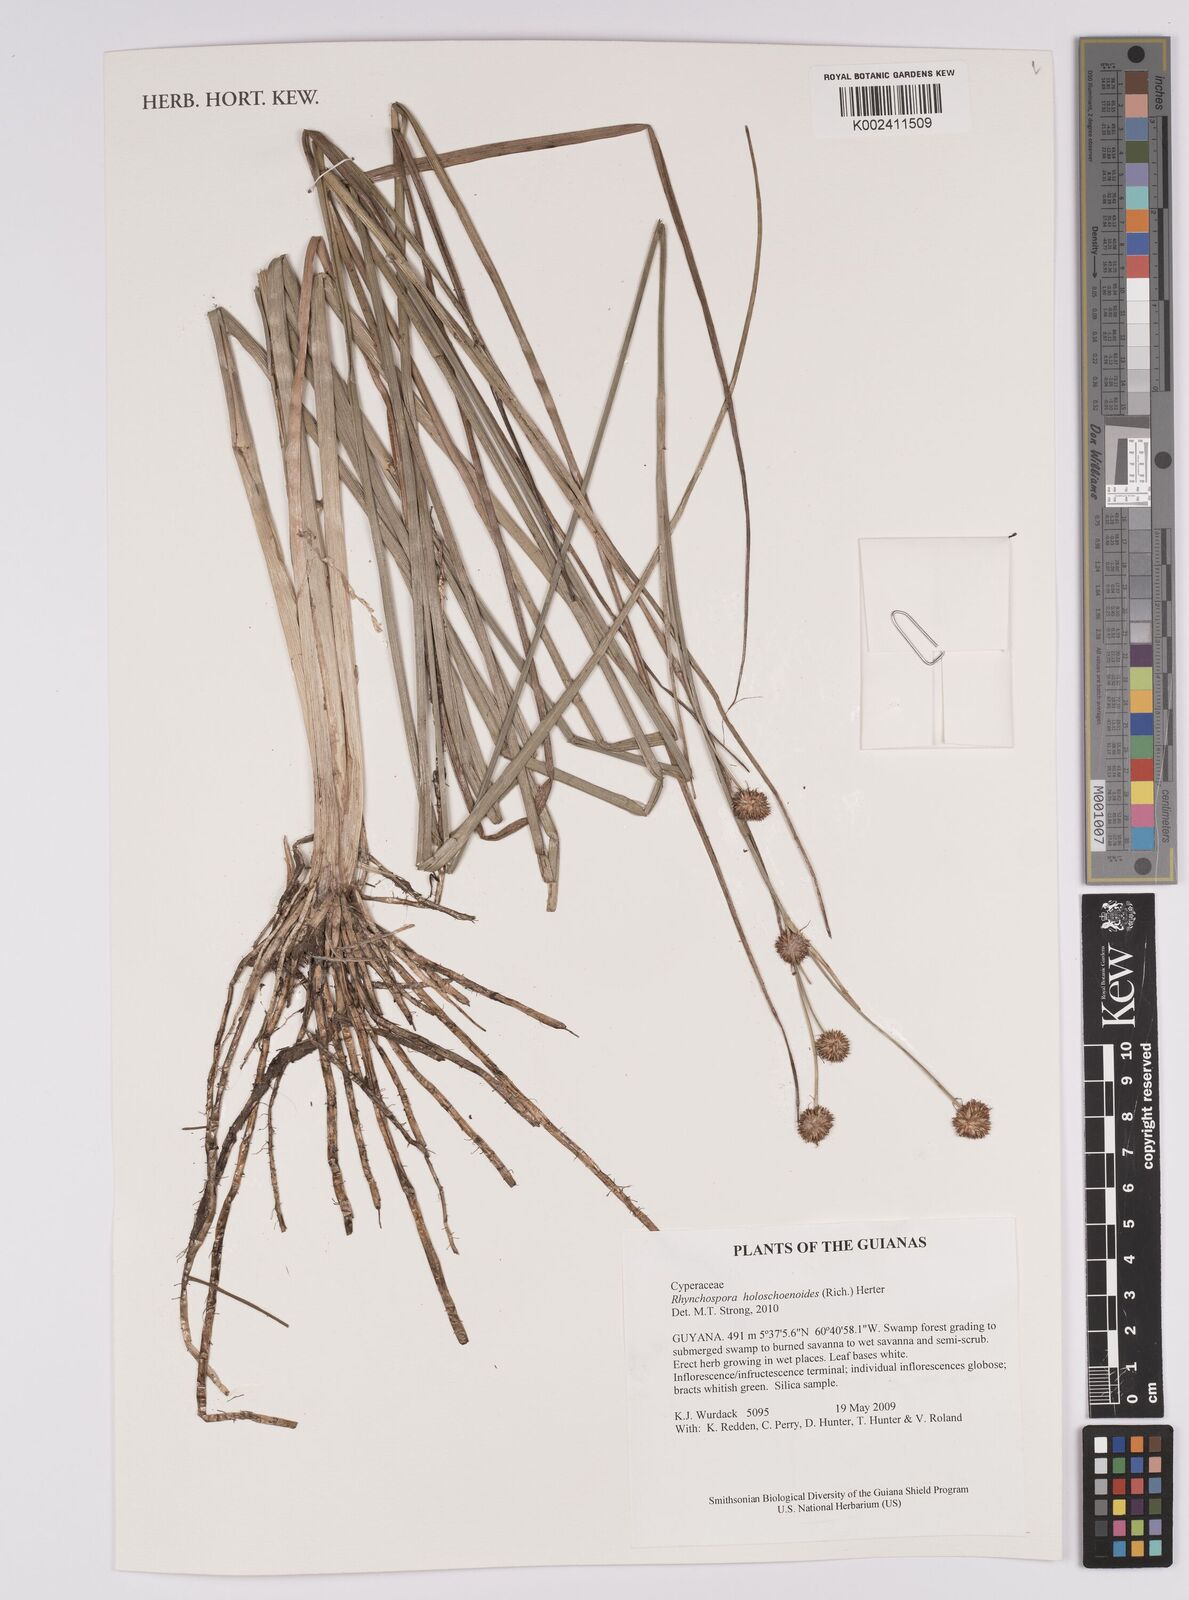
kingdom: Plantae
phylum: Tracheophyta
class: Liliopsida
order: Poales
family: Cyperaceae
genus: Rhynchospora
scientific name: Rhynchospora holoschoenoides
